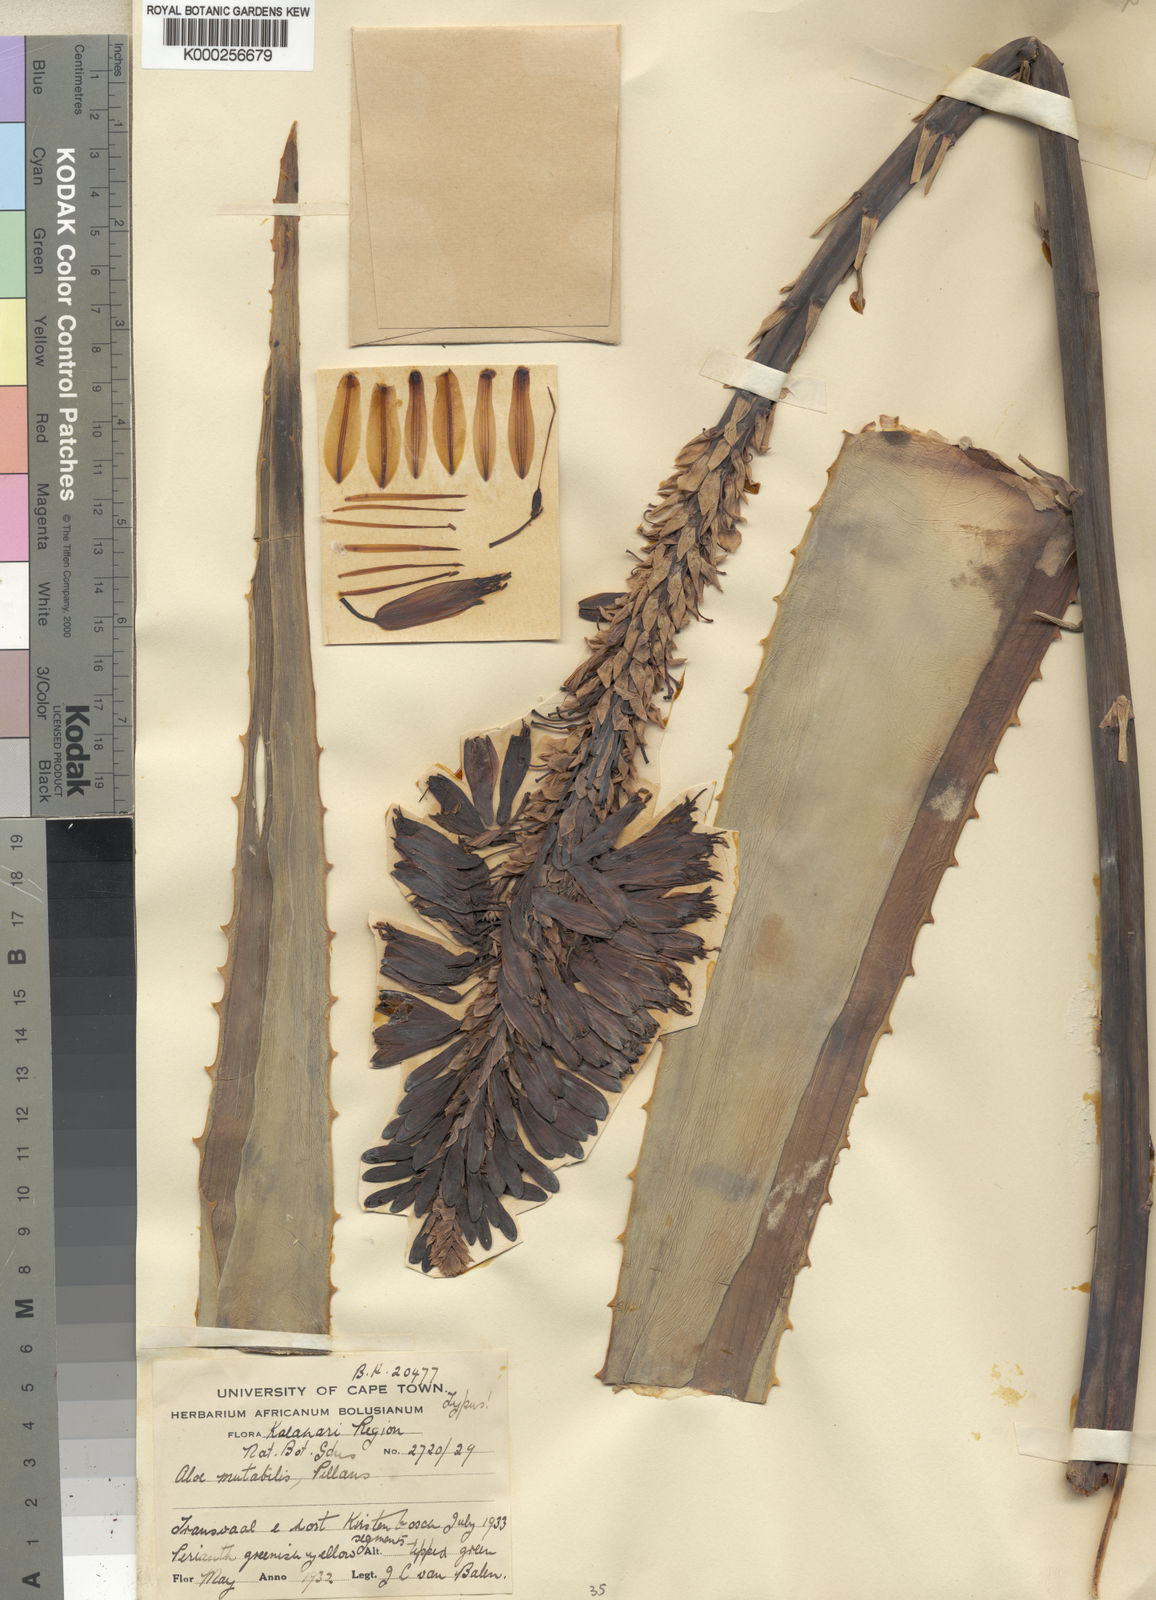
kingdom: Plantae
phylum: Tracheophyta
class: Liliopsida
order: Asparagales
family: Asphodelaceae
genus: Aloe
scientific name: Aloe mutabilis
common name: Blue krantz aloe
